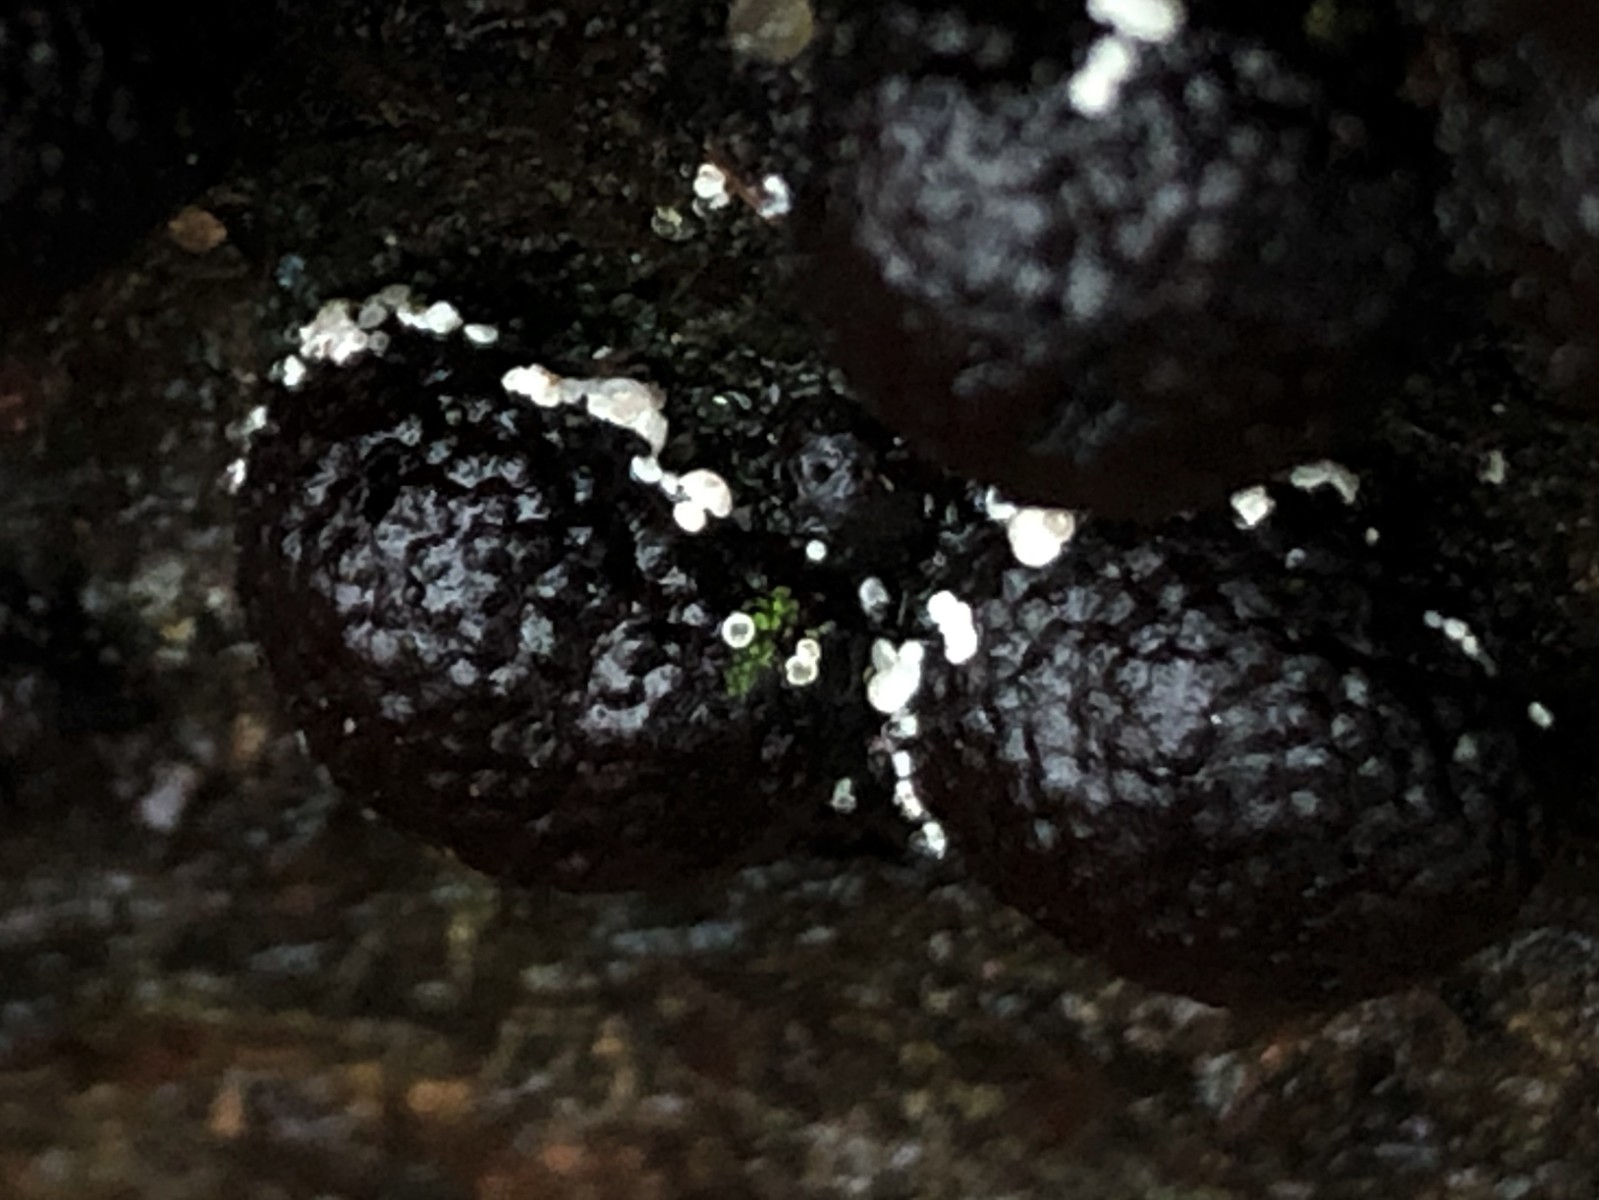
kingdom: Fungi
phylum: Ascomycota
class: Leotiomycetes
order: Helotiales
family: Hyaloscyphaceae
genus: Polydesmia
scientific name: Polydesmia pruinosa
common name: dunskive
